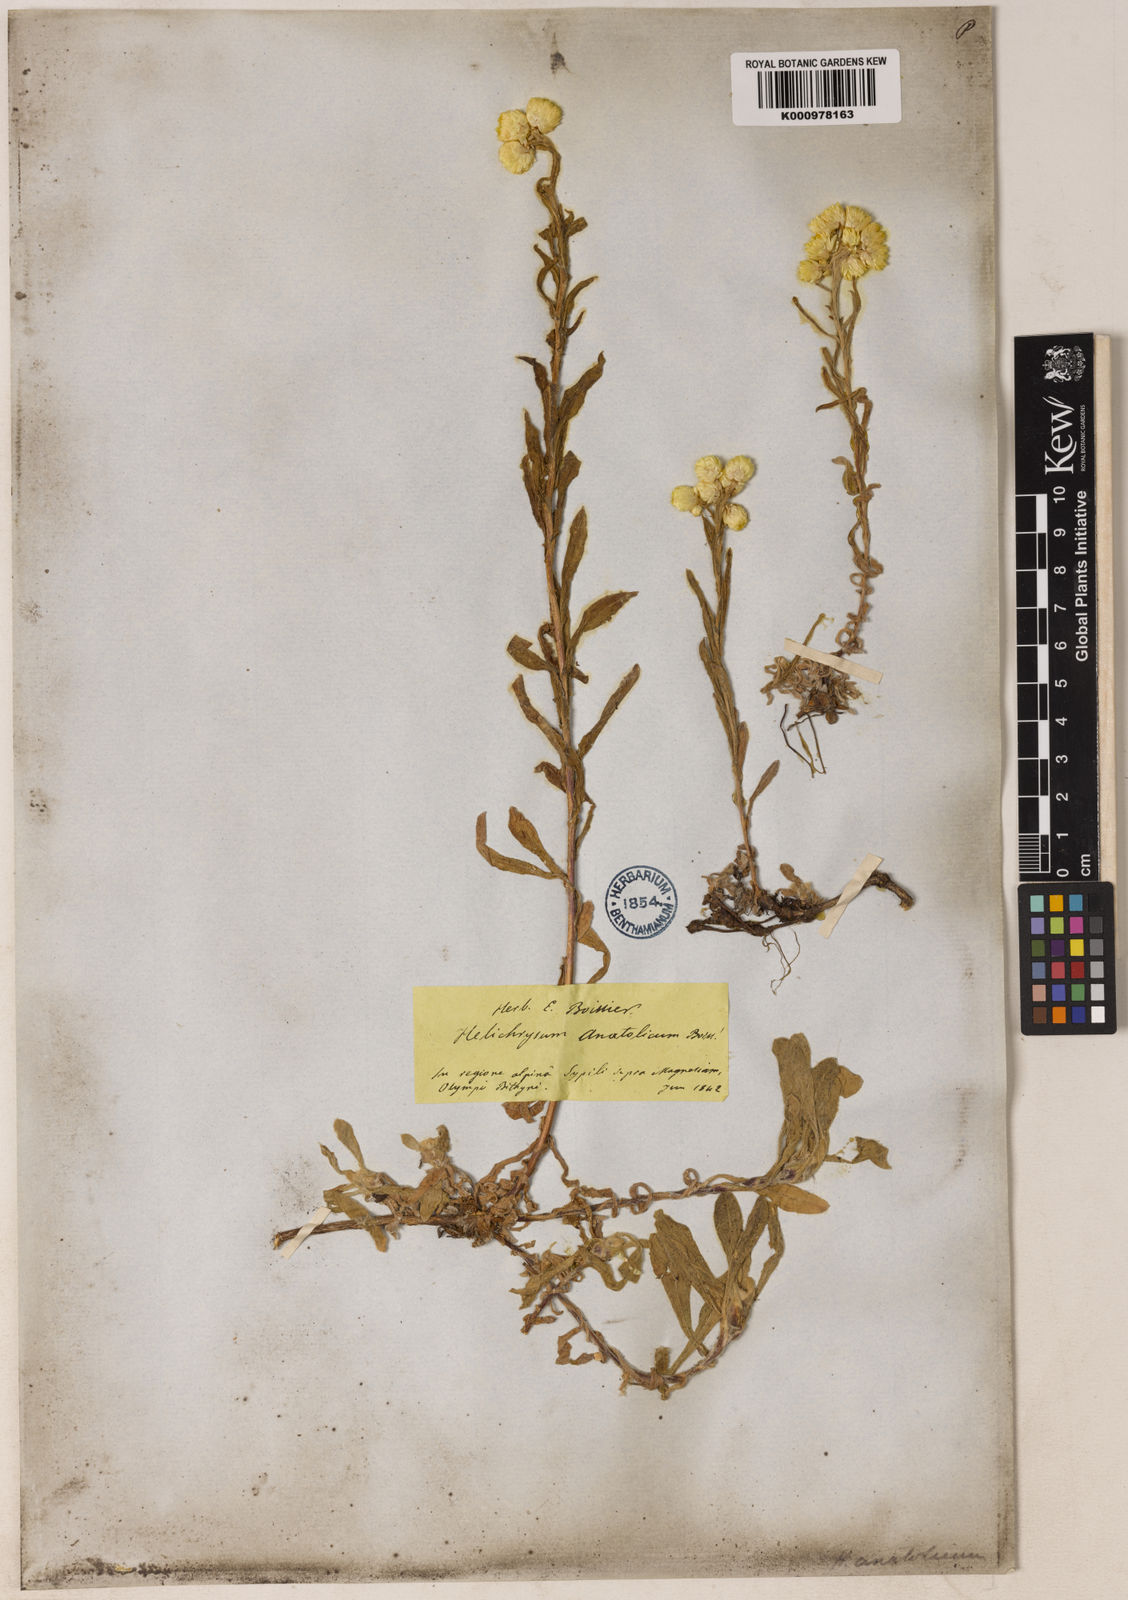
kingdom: Plantae
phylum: Tracheophyta
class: Magnoliopsida
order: Asterales
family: Asteraceae
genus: Helichrysum
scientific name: Helichrysum plicatum
